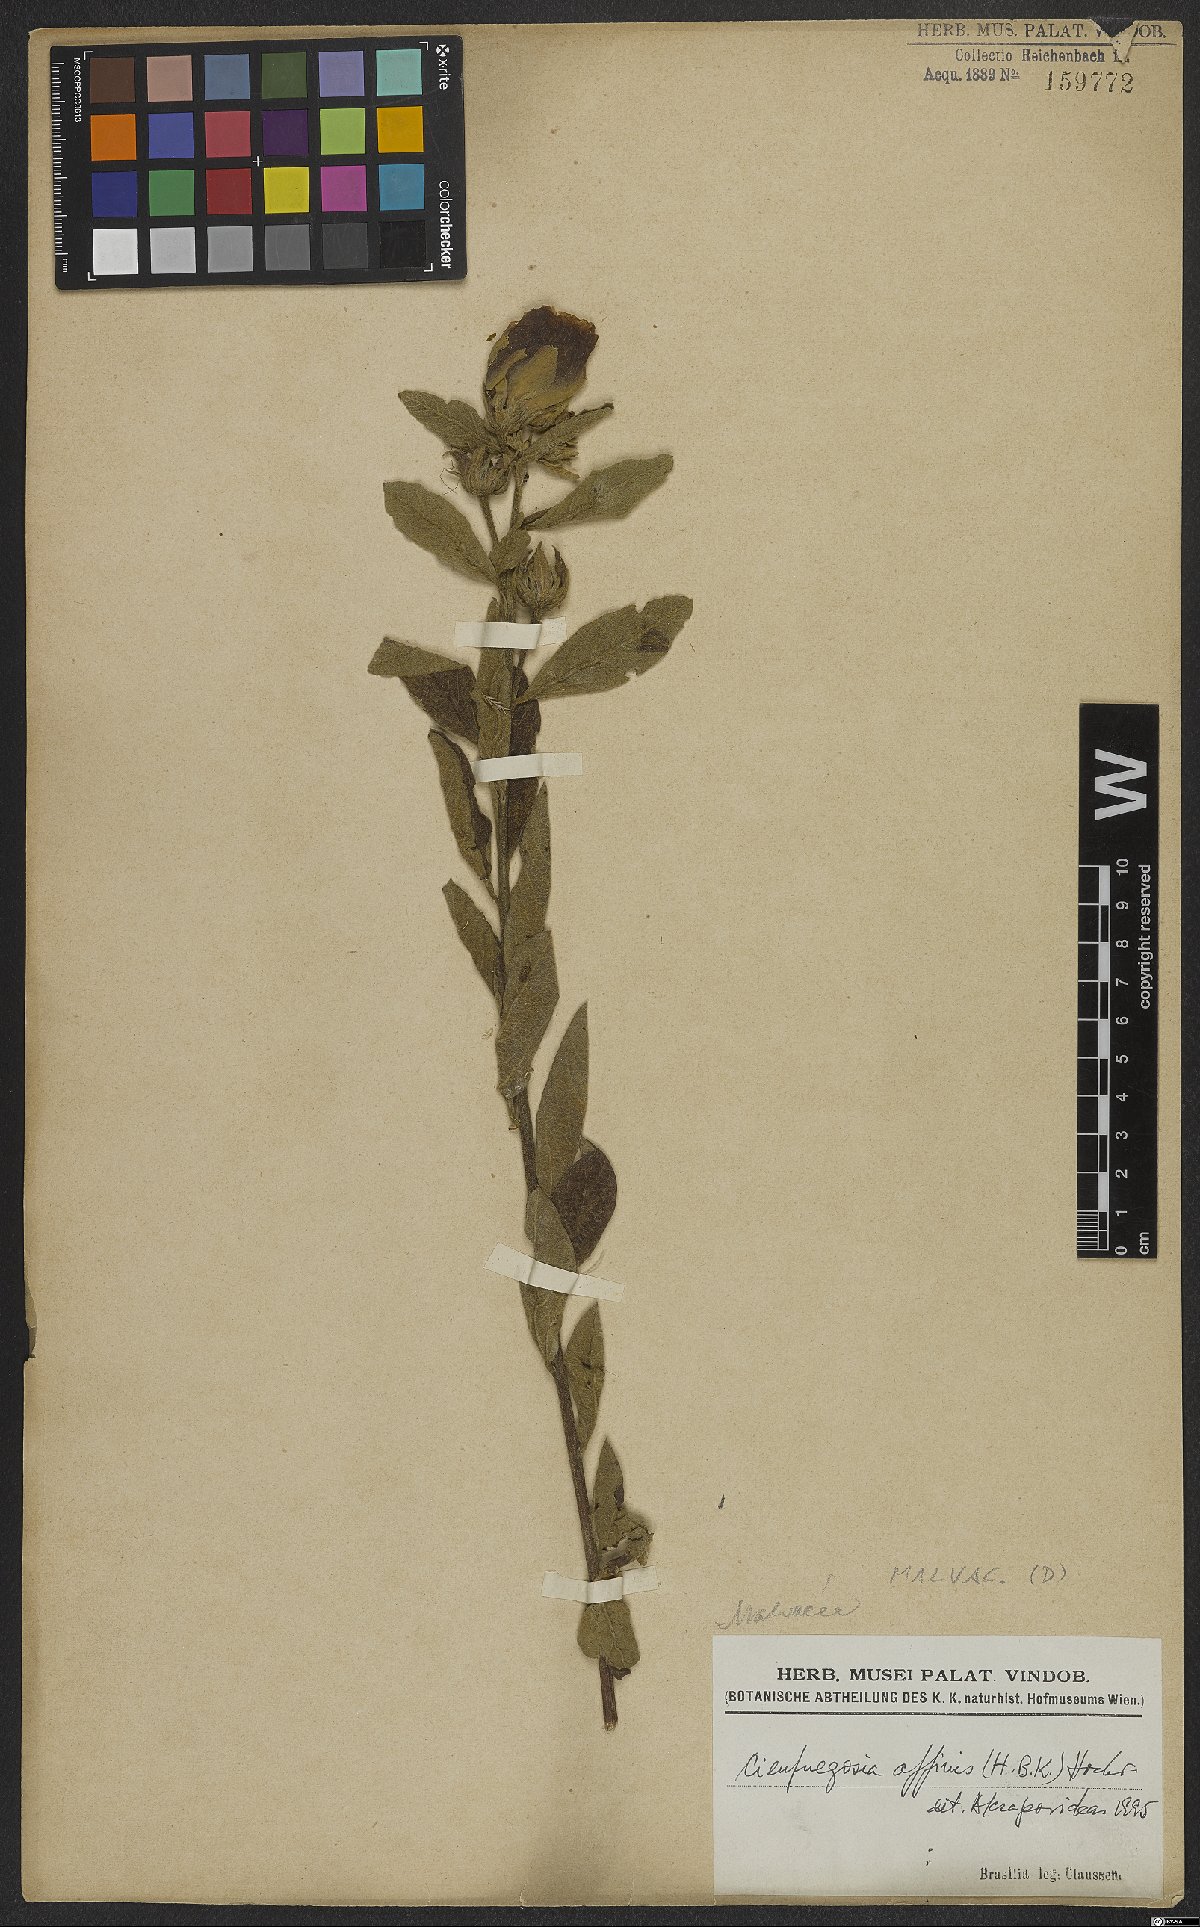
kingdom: Plantae
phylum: Tracheophyta
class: Magnoliopsida
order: Malvales
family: Malvaceae
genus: Cienfuegosia
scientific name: Cienfuegosia affinis
